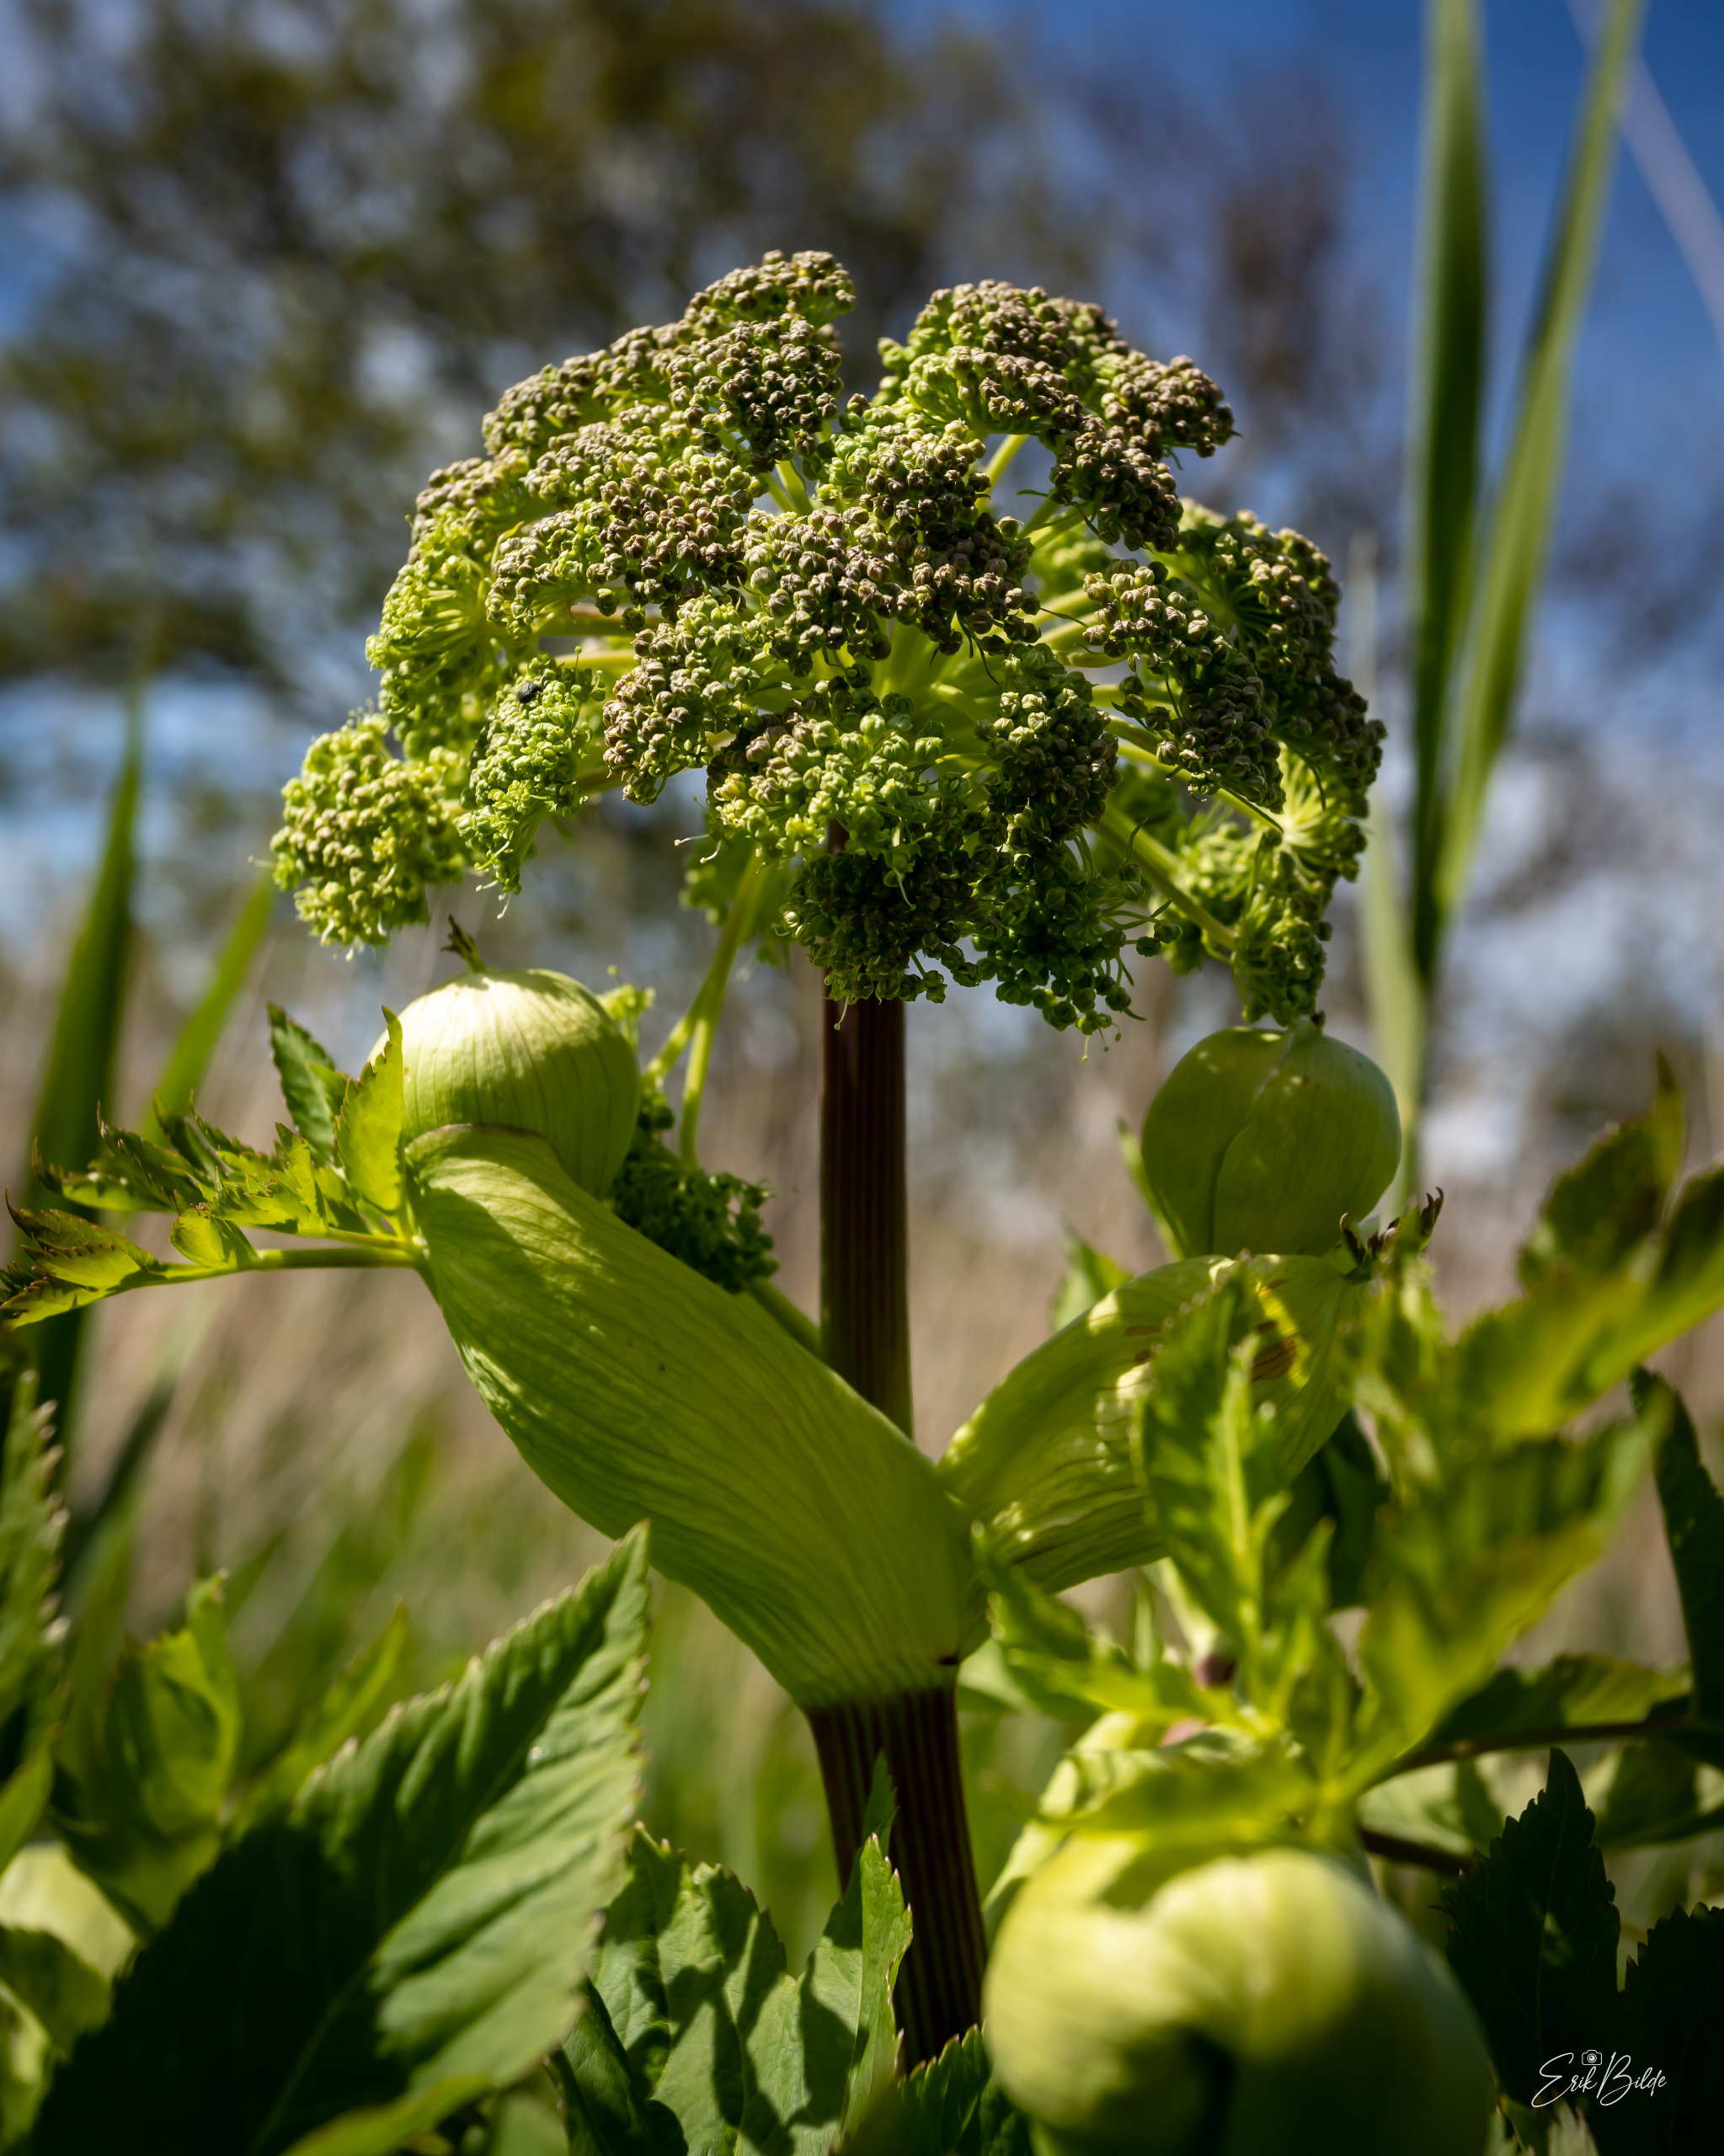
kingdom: Plantae
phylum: Tracheophyta
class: Magnoliopsida
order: Apiales
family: Apiaceae
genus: Angelica
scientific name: Angelica archangelica
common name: Kvan
